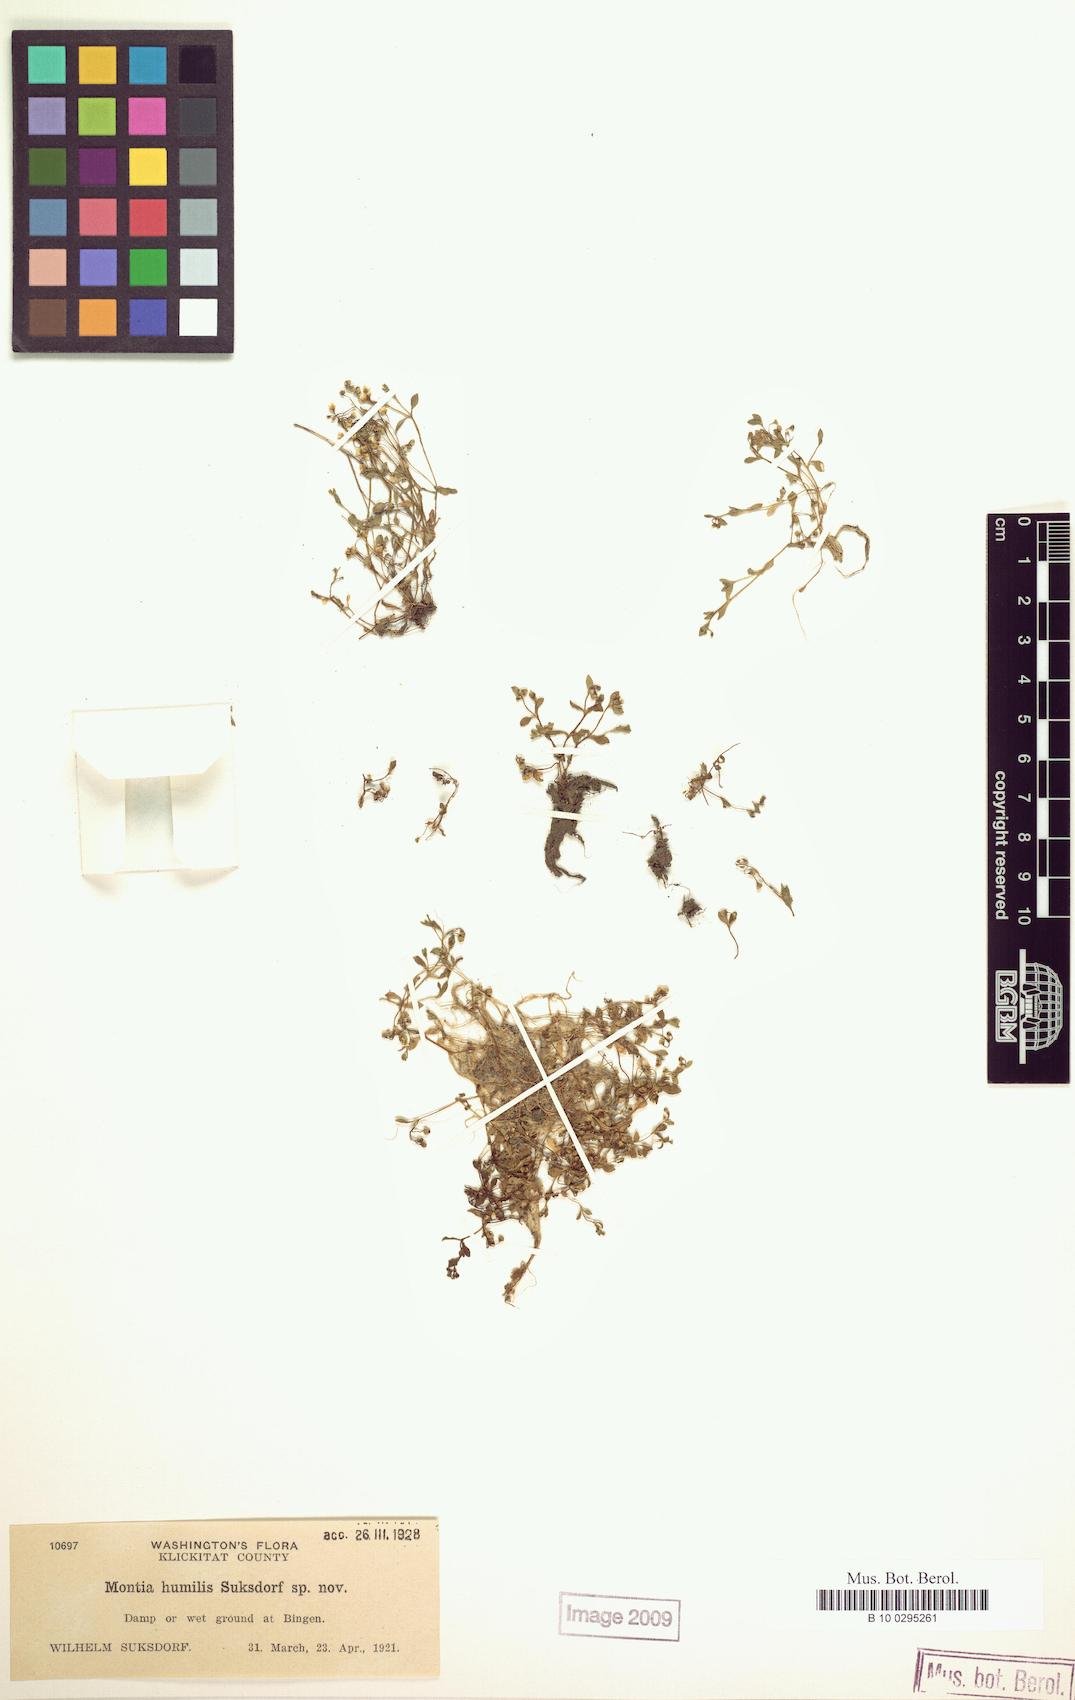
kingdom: Plantae
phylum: Tracheophyta
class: Magnoliopsida
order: Caryophyllales
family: Montiaceae
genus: Montia
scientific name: Montia fontana
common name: Blinks
